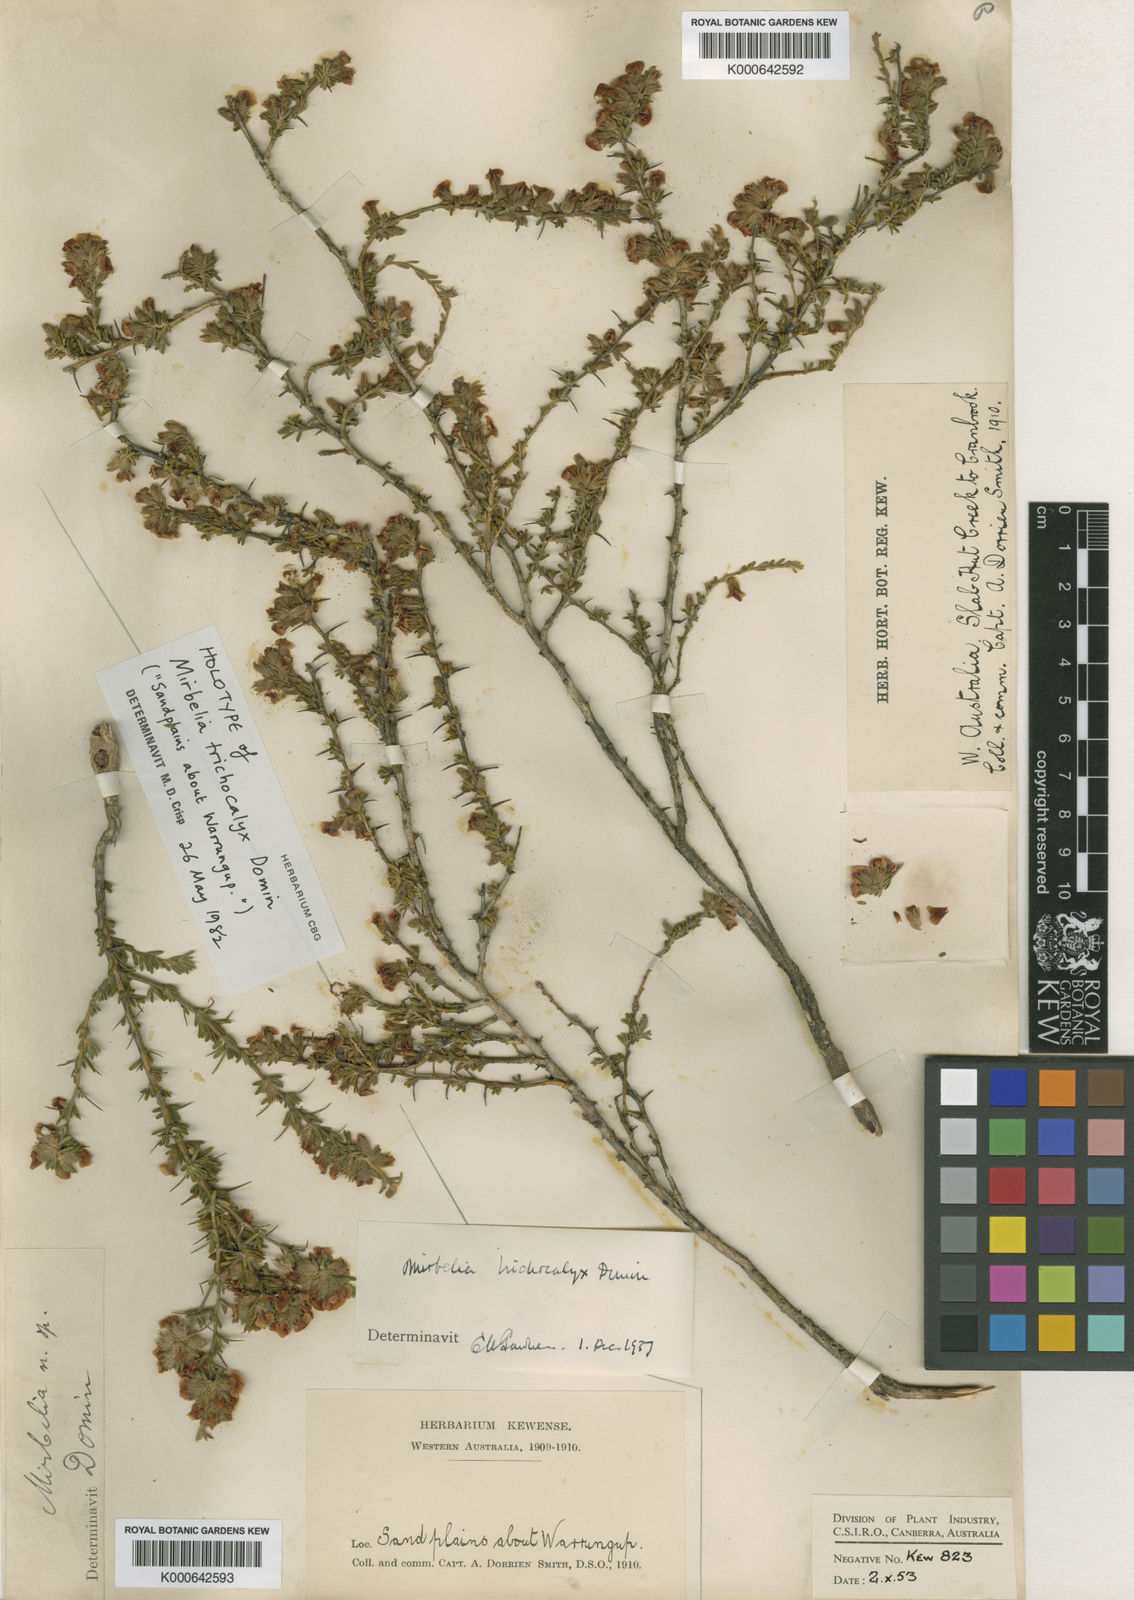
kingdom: Plantae
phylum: Tracheophyta
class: Magnoliopsida
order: Fabales
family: Fabaceae
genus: Mirbelia
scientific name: Mirbelia trichocalyx
